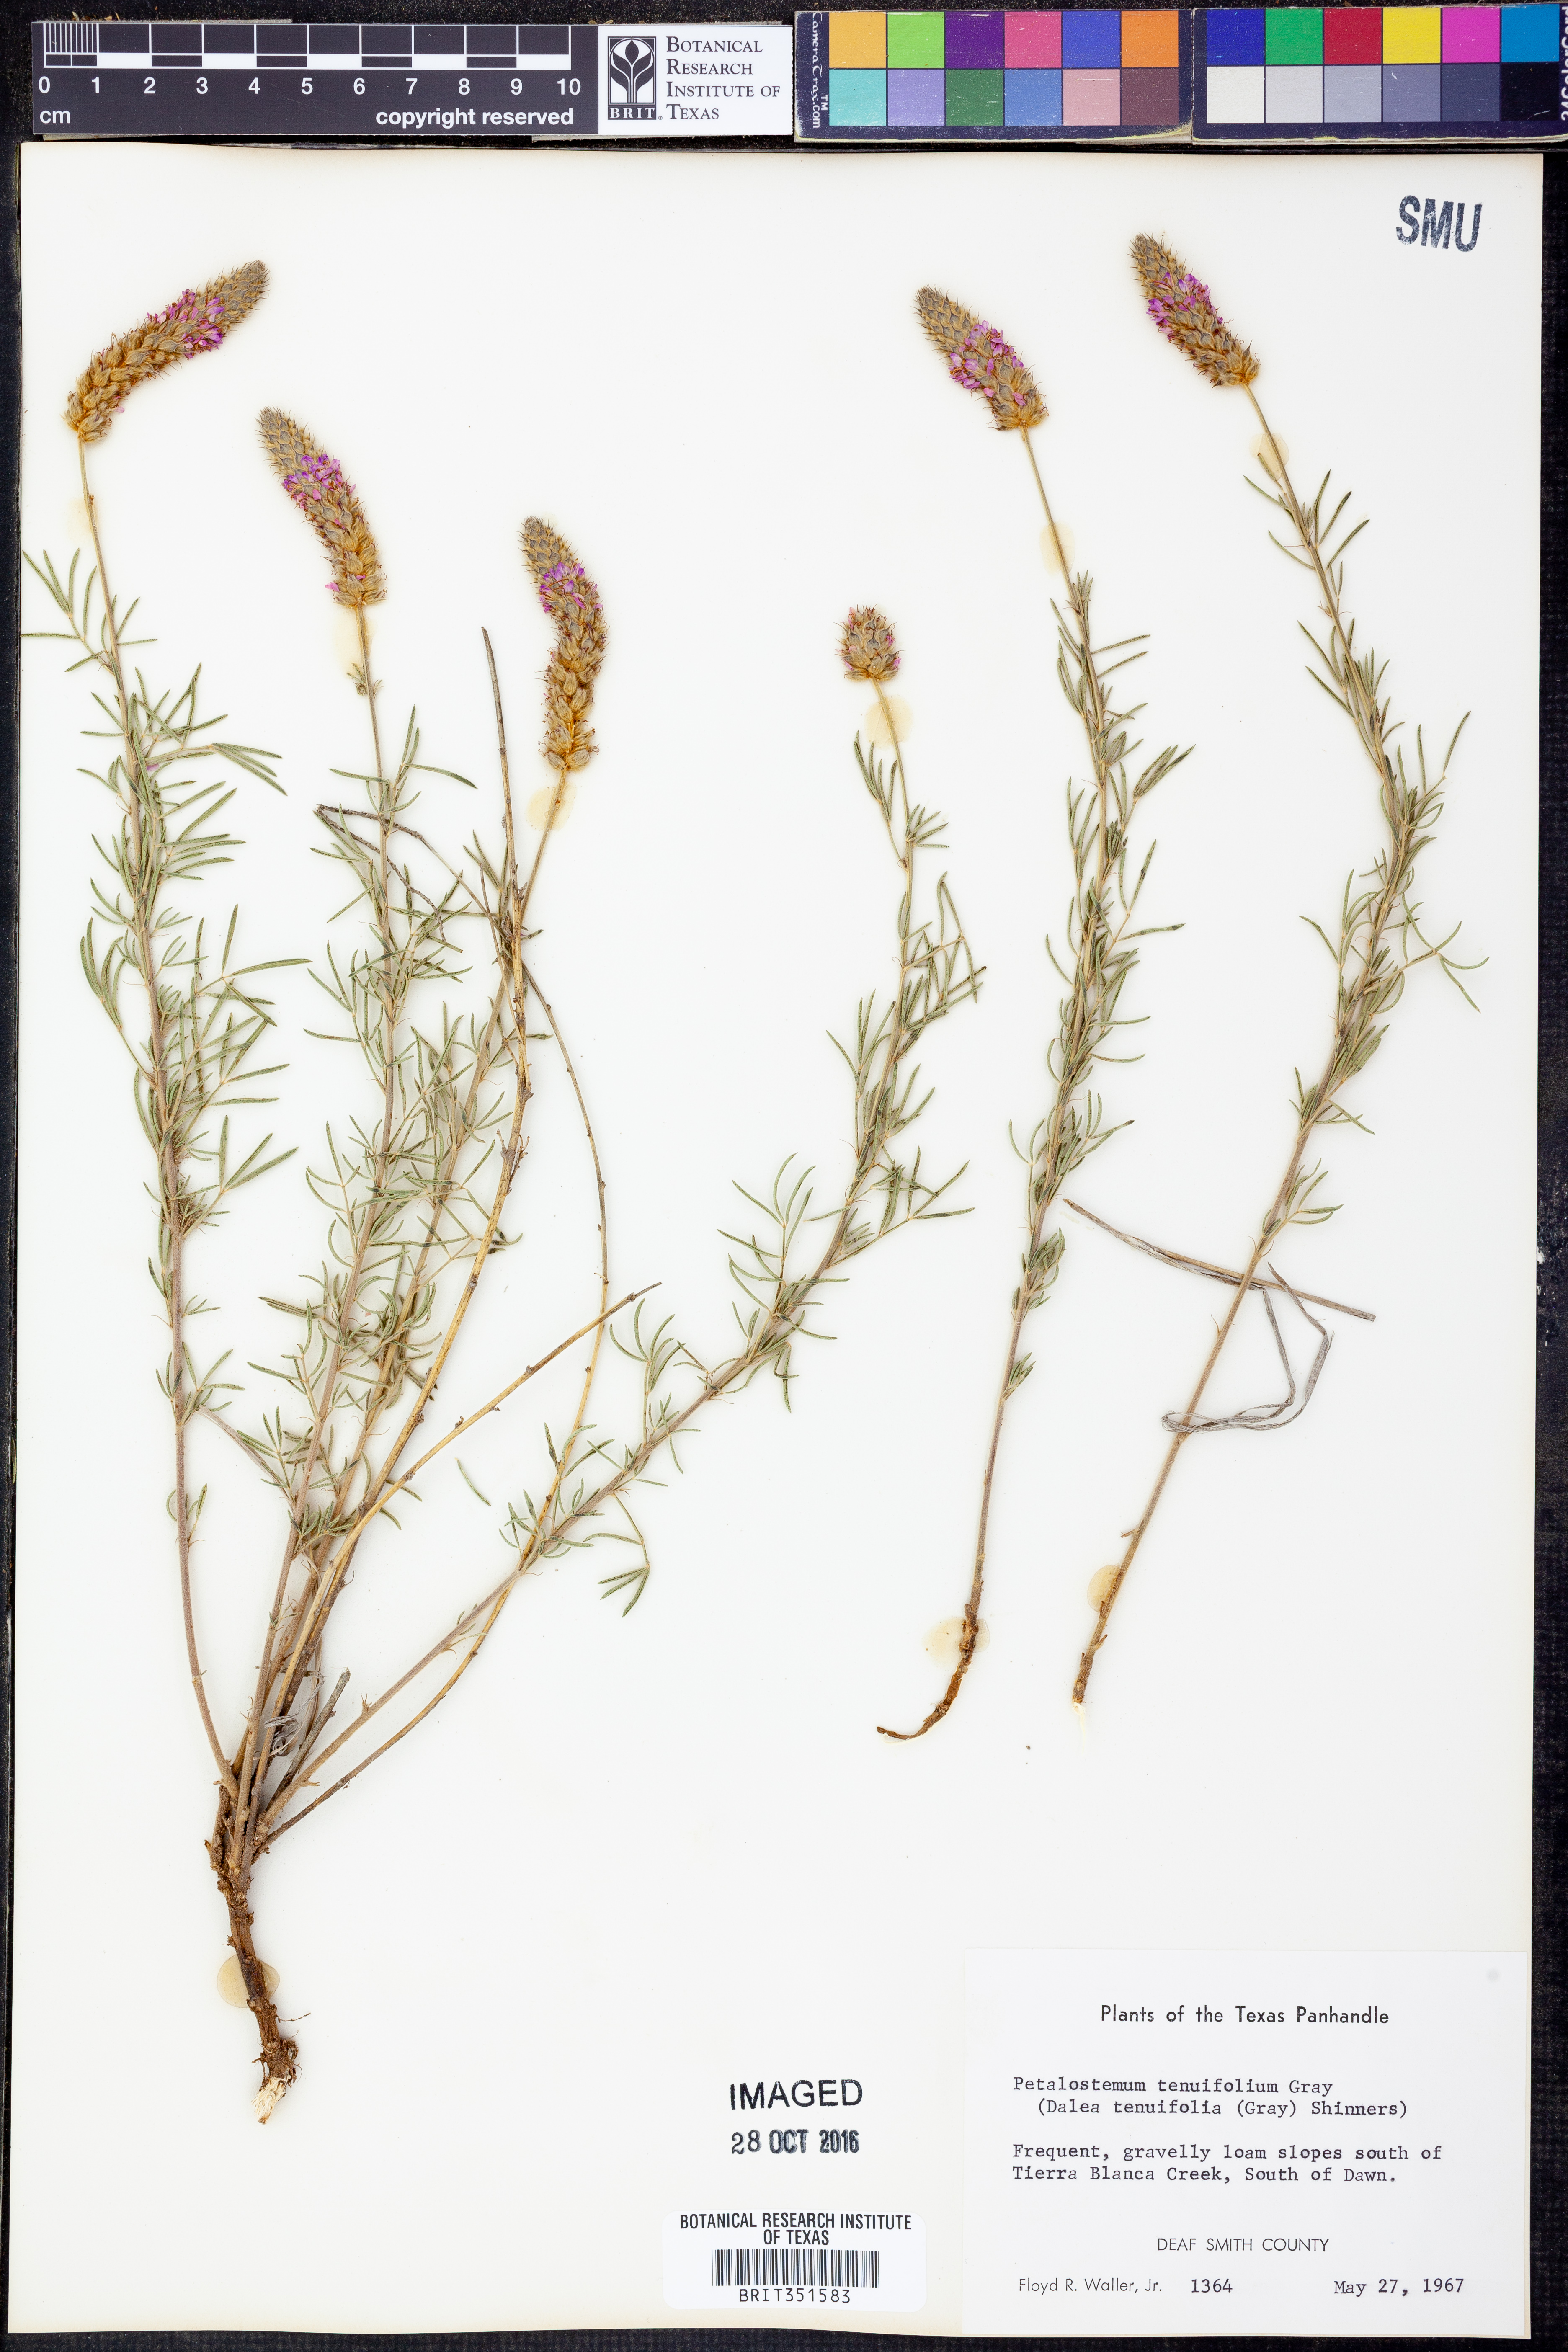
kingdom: Plantae
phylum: Tracheophyta
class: Magnoliopsida
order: Fabales
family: Fabaceae
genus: Dalea
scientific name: Dalea tenuifolia
